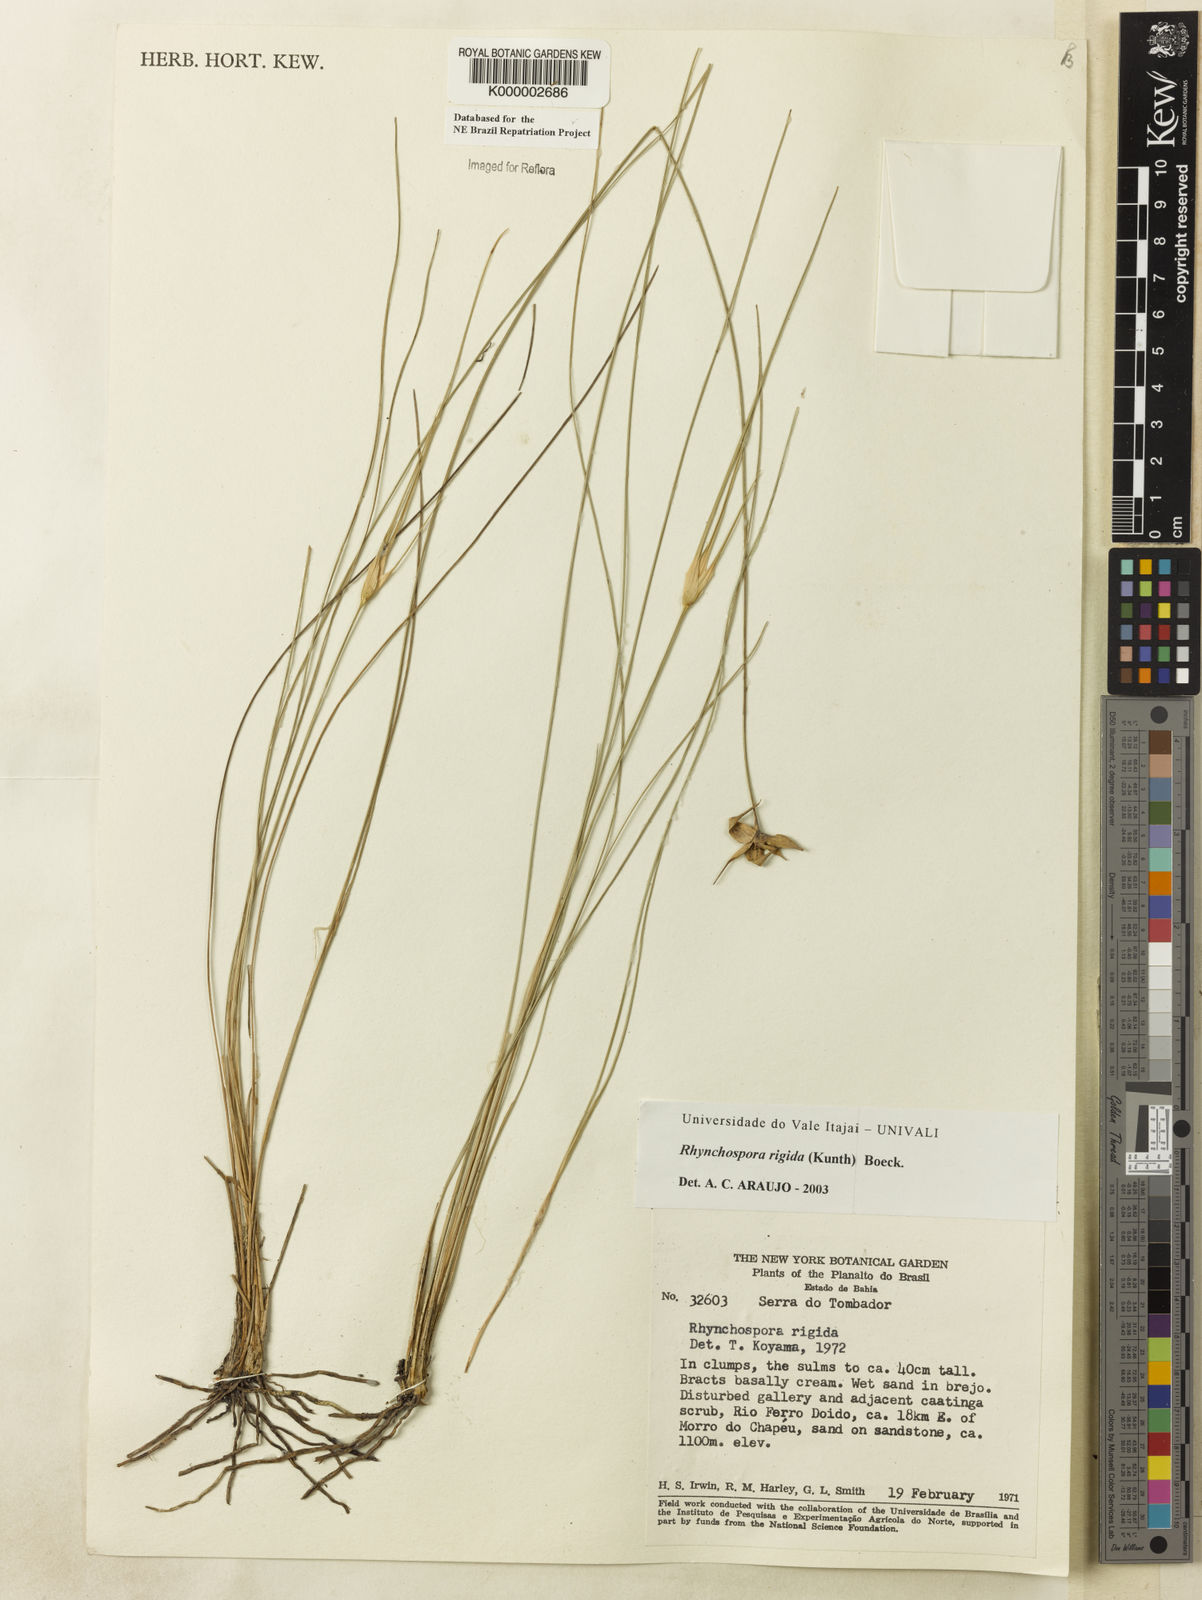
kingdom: Plantae
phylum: Tracheophyta
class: Liliopsida
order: Poales
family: Cyperaceae
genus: Rhynchospora
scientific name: Rhynchospora consanguinea
